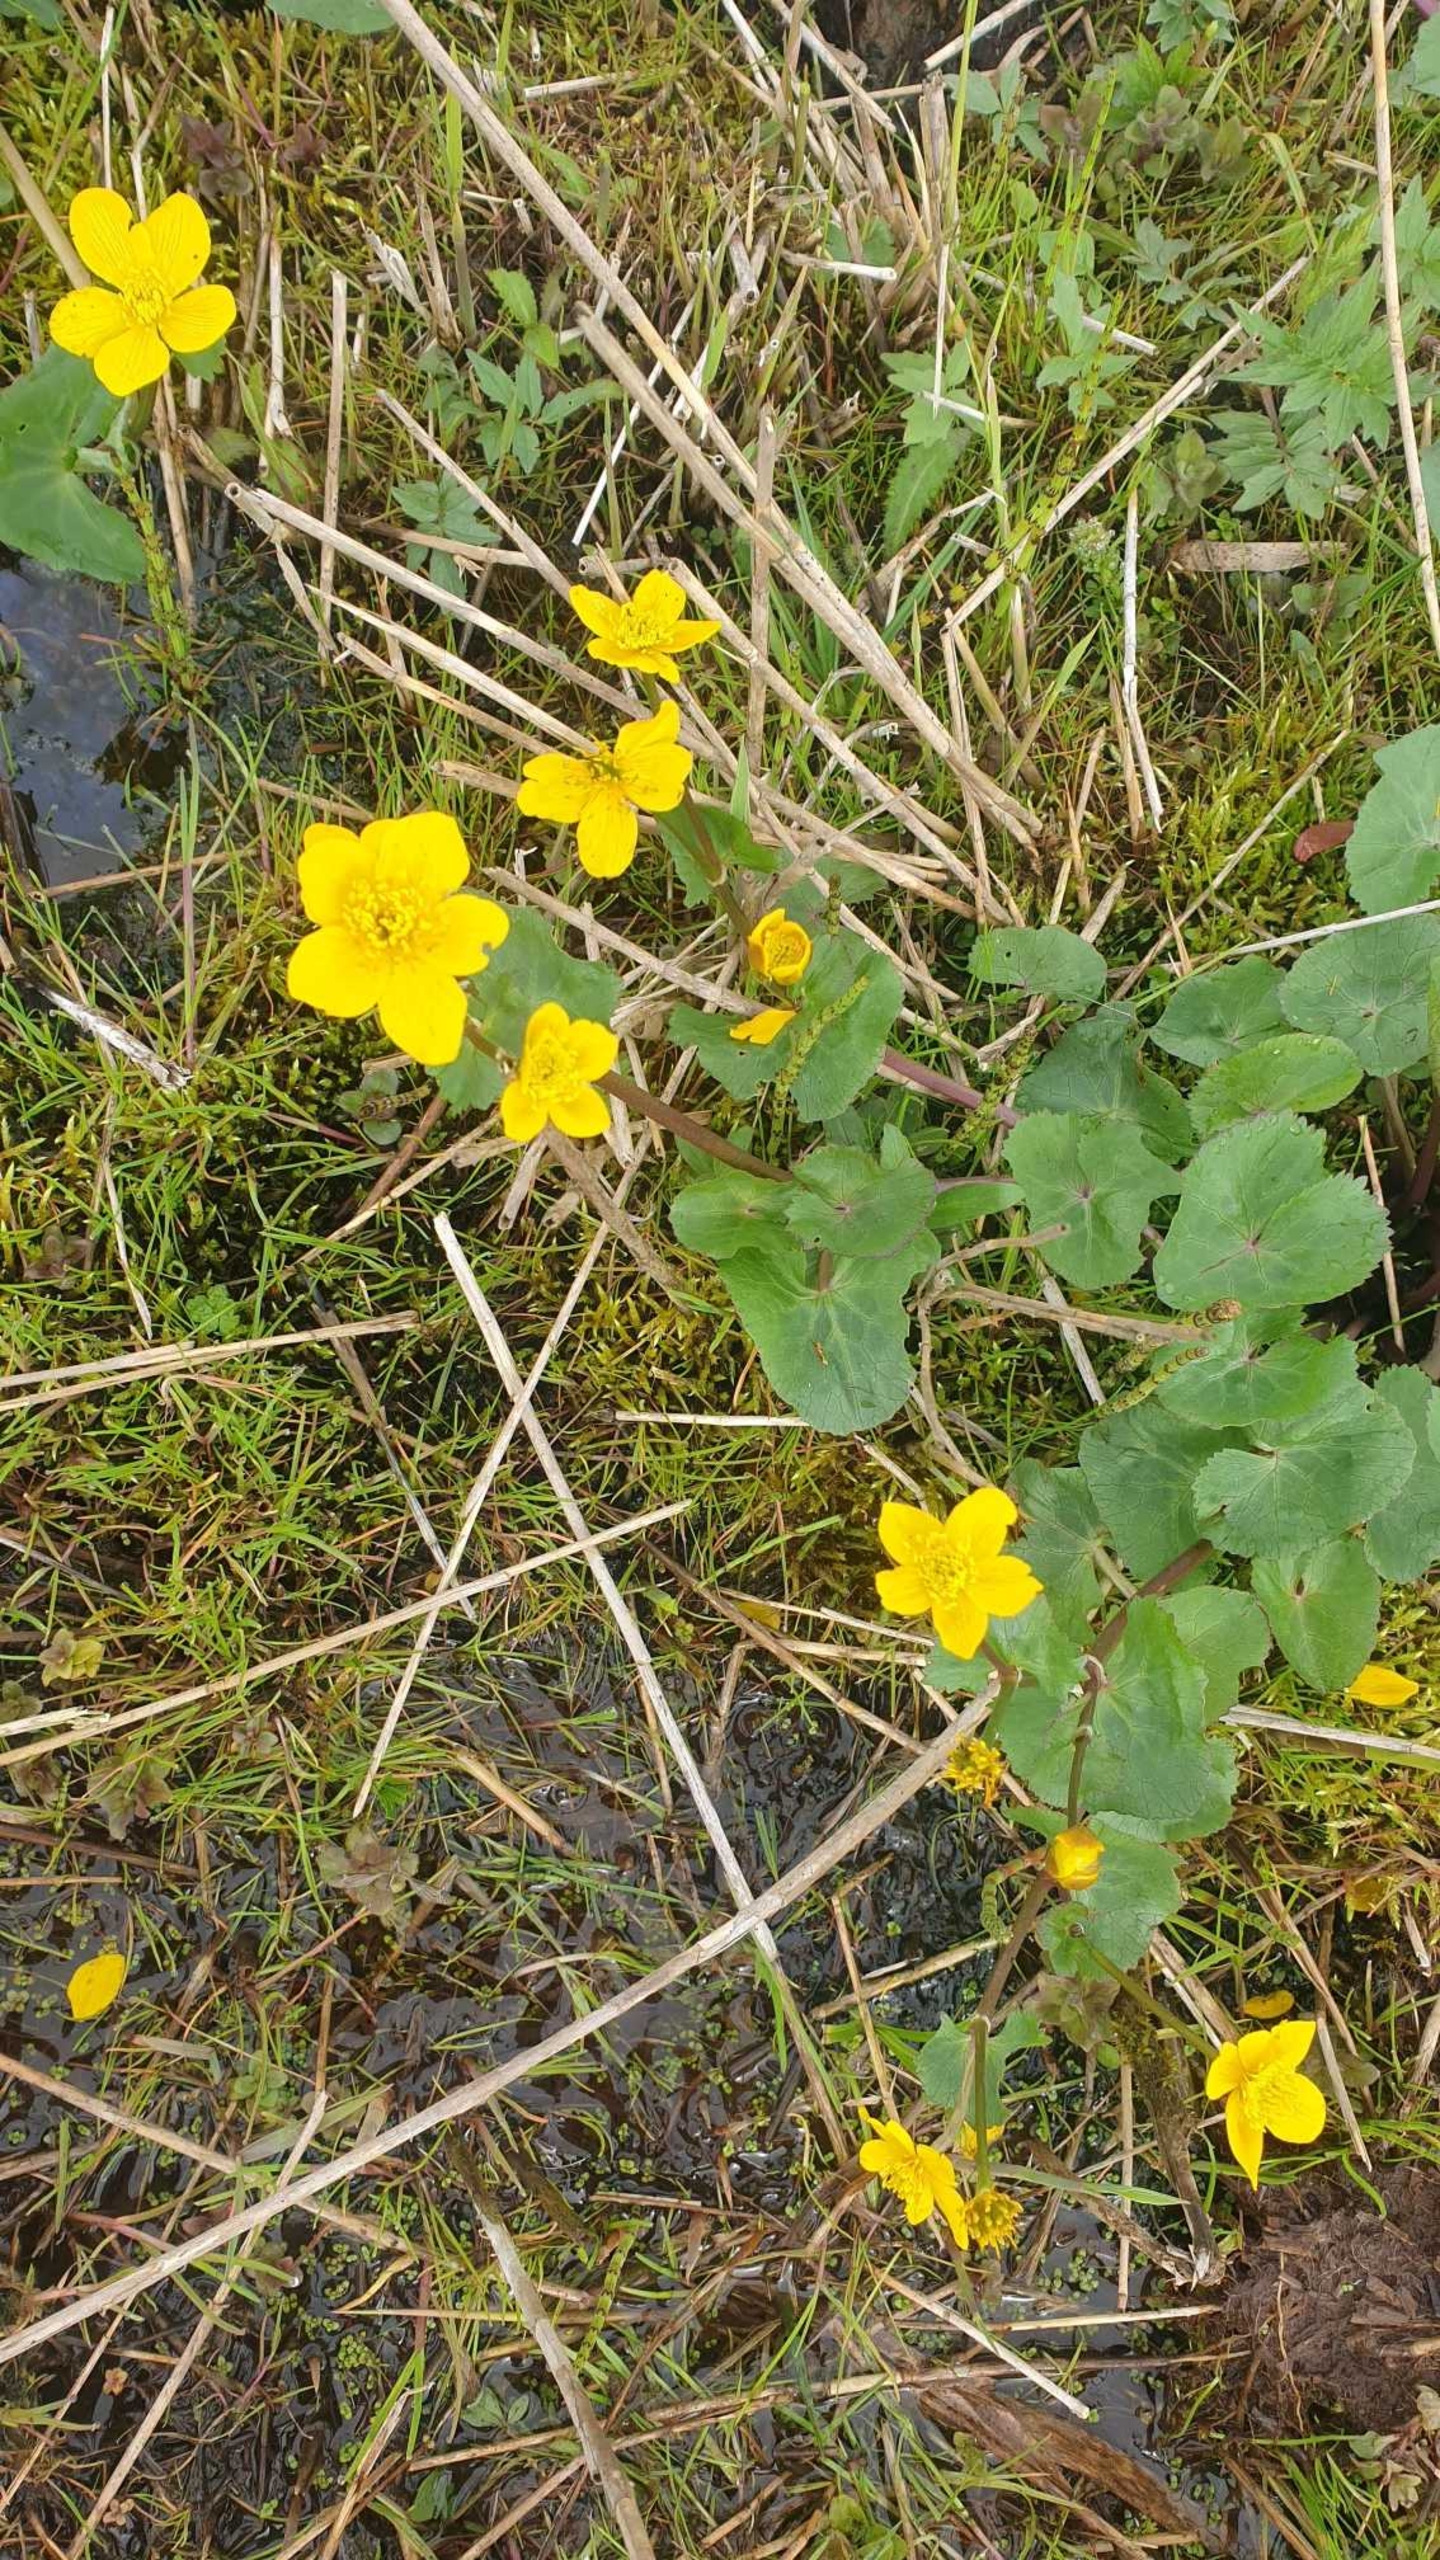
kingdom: Plantae
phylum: Tracheophyta
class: Magnoliopsida
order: Ranunculales
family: Ranunculaceae
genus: Caltha
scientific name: Caltha palustris
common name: Eng-kabbeleje
